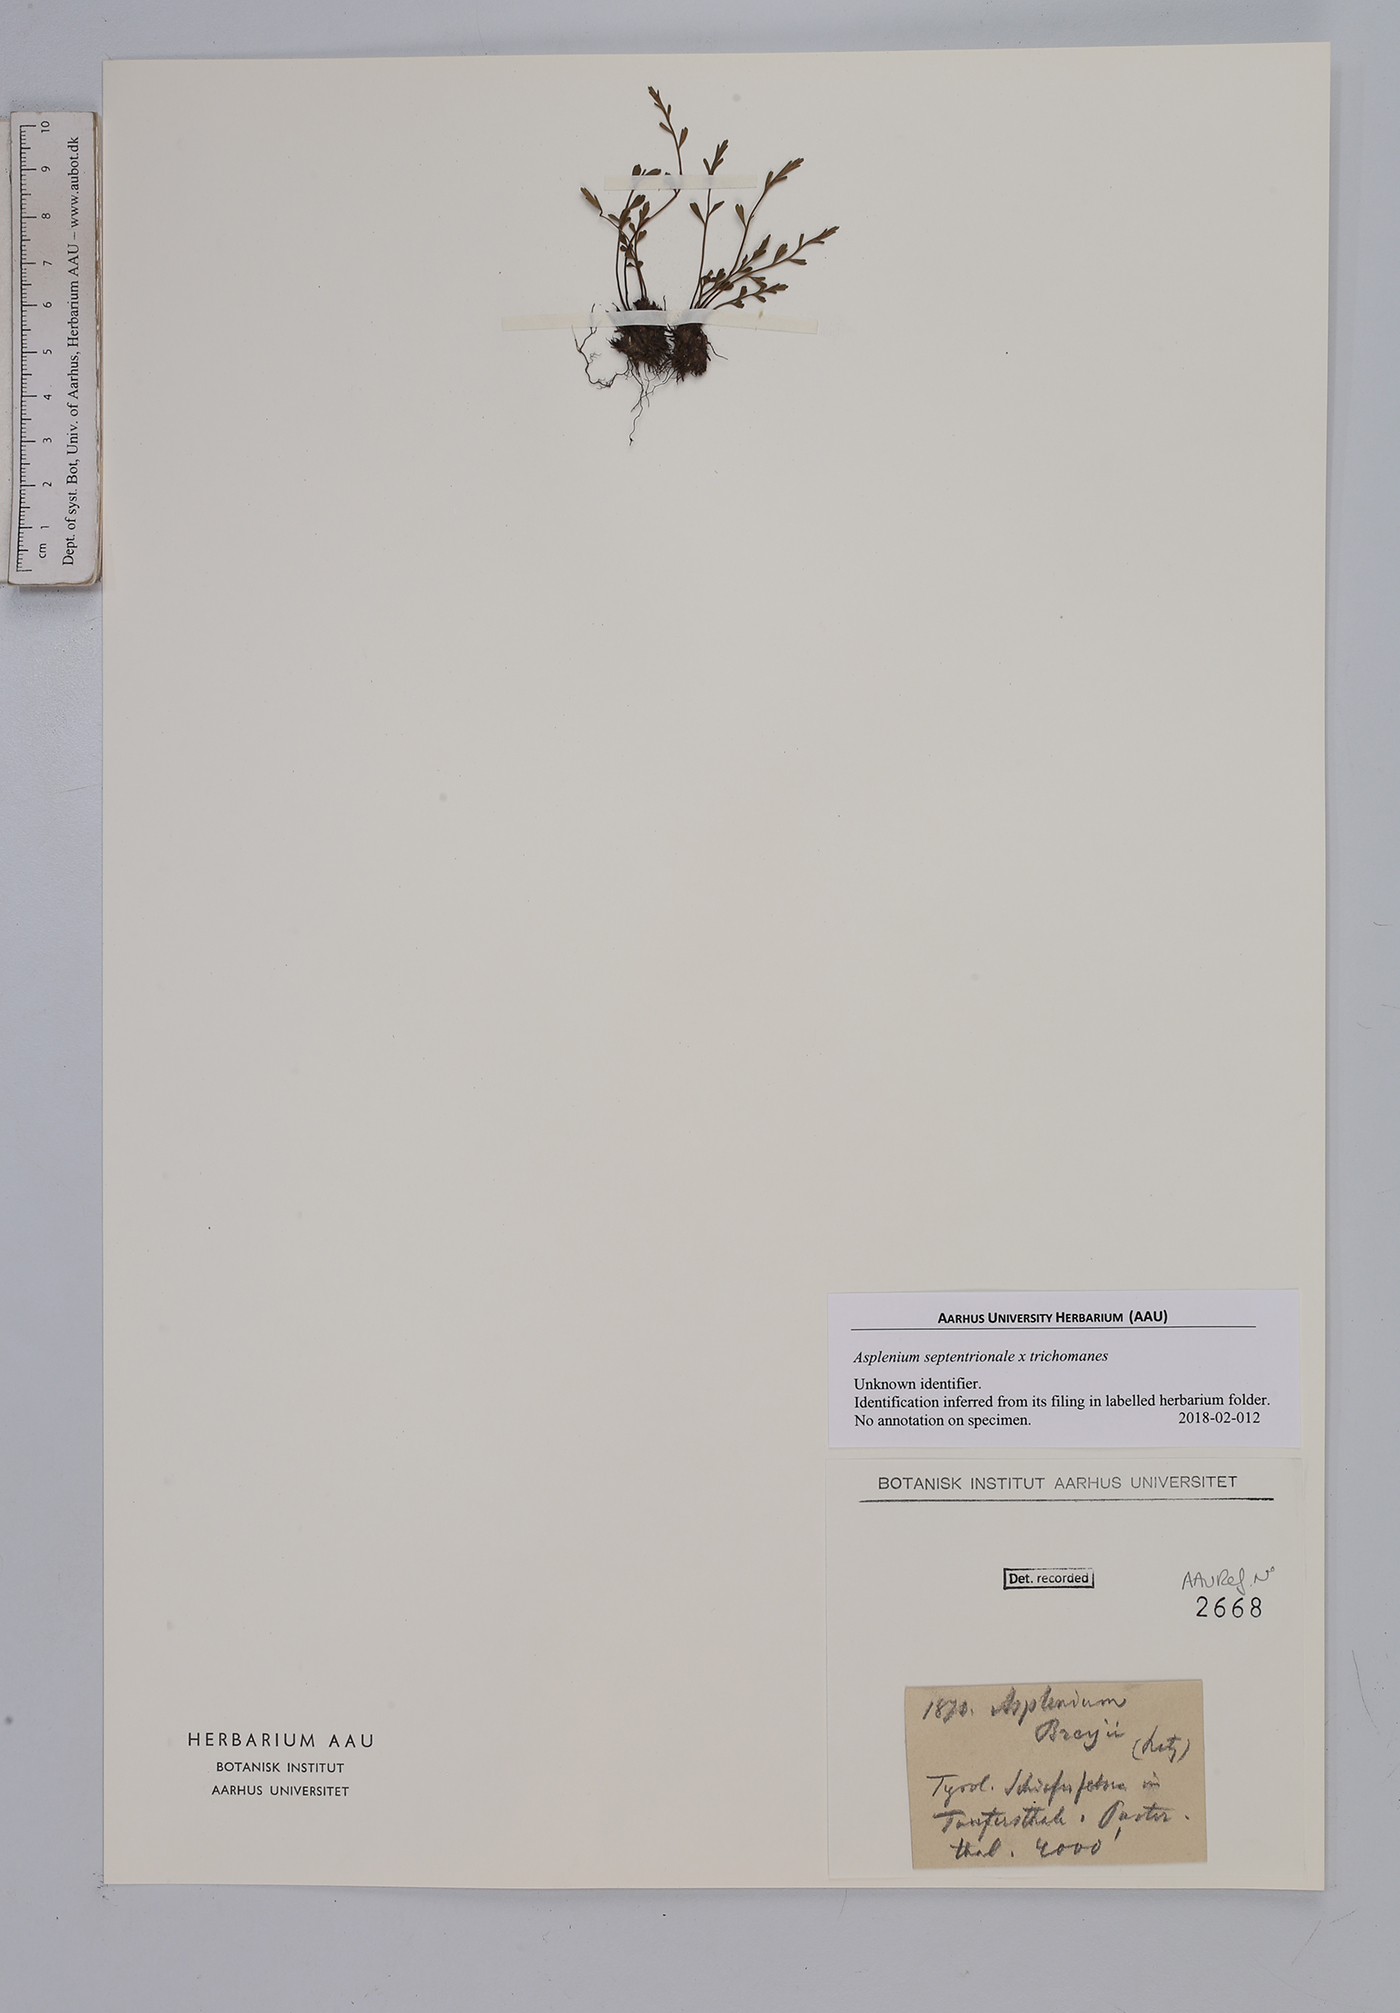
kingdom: Plantae
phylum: Tracheophyta
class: Polypodiopsida
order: Polypodiales
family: Aspleniaceae
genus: Asplenium
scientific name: Asplenium
